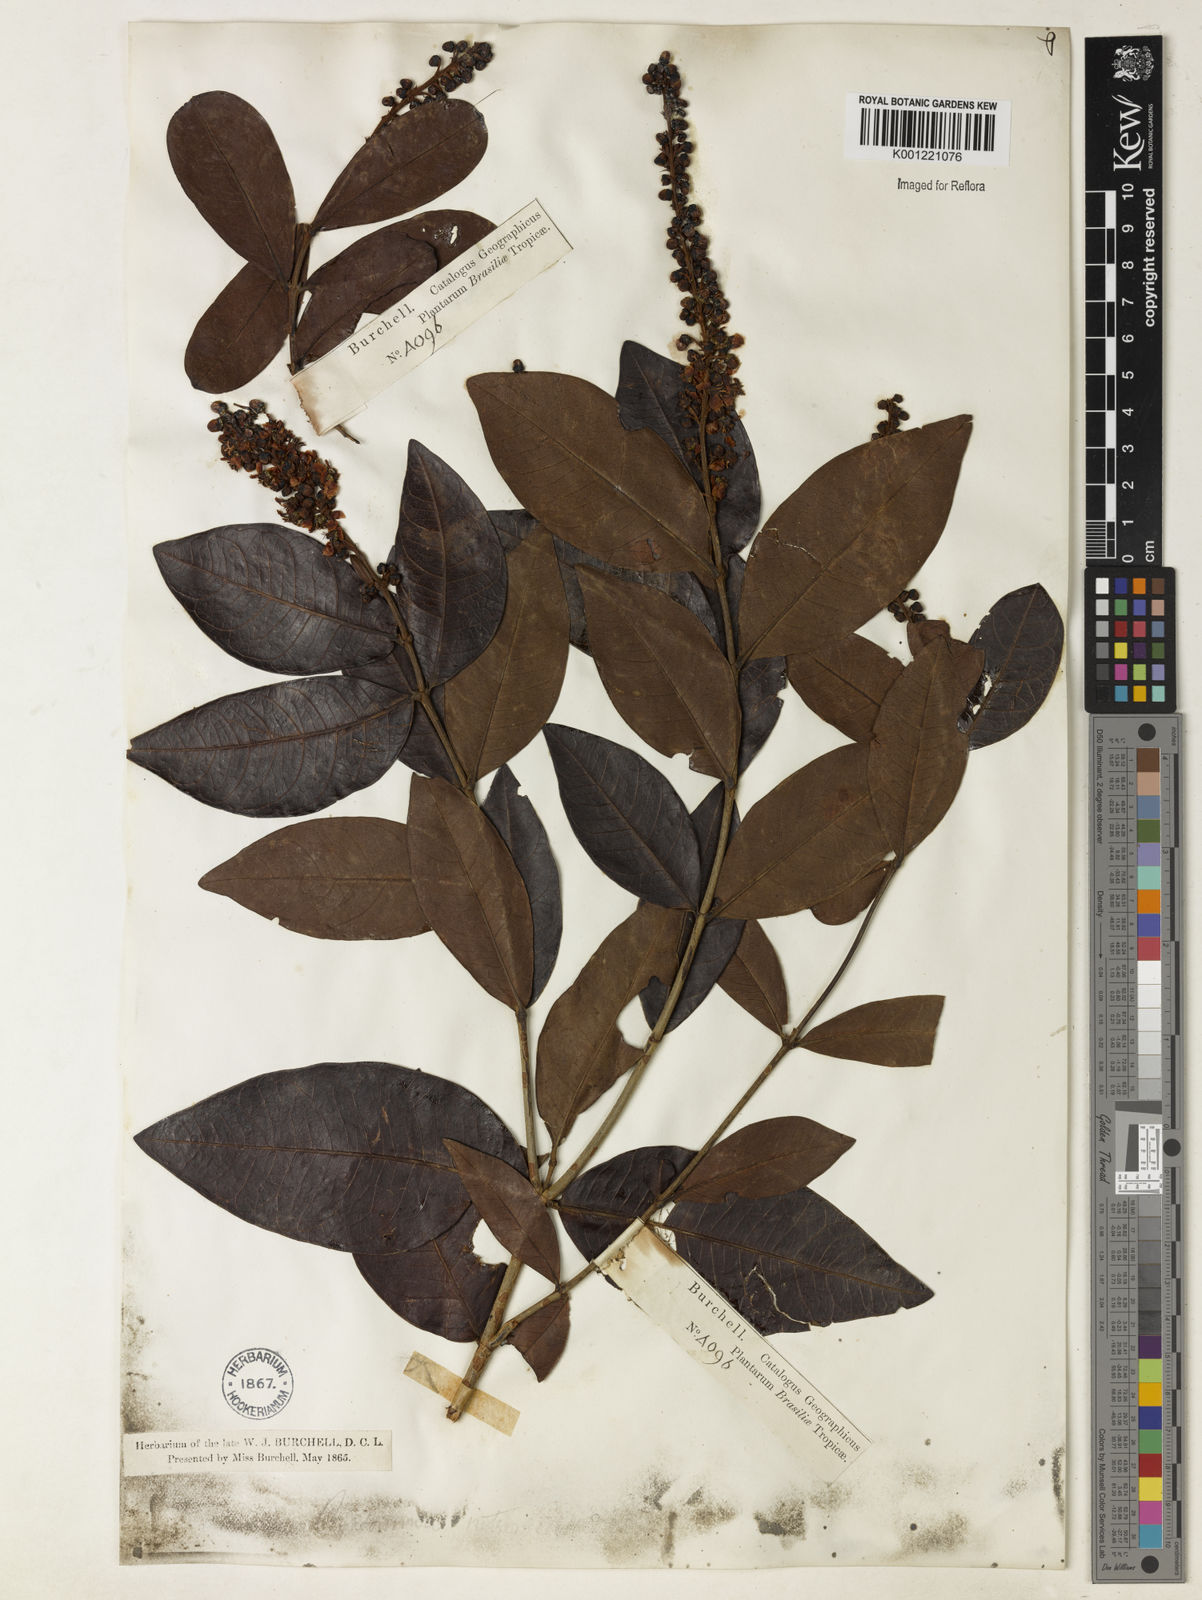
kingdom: Plantae
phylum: Tracheophyta
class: Magnoliopsida
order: Malpighiales
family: Malpighiaceae
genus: Byrsonima
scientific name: Byrsonima intermedia
